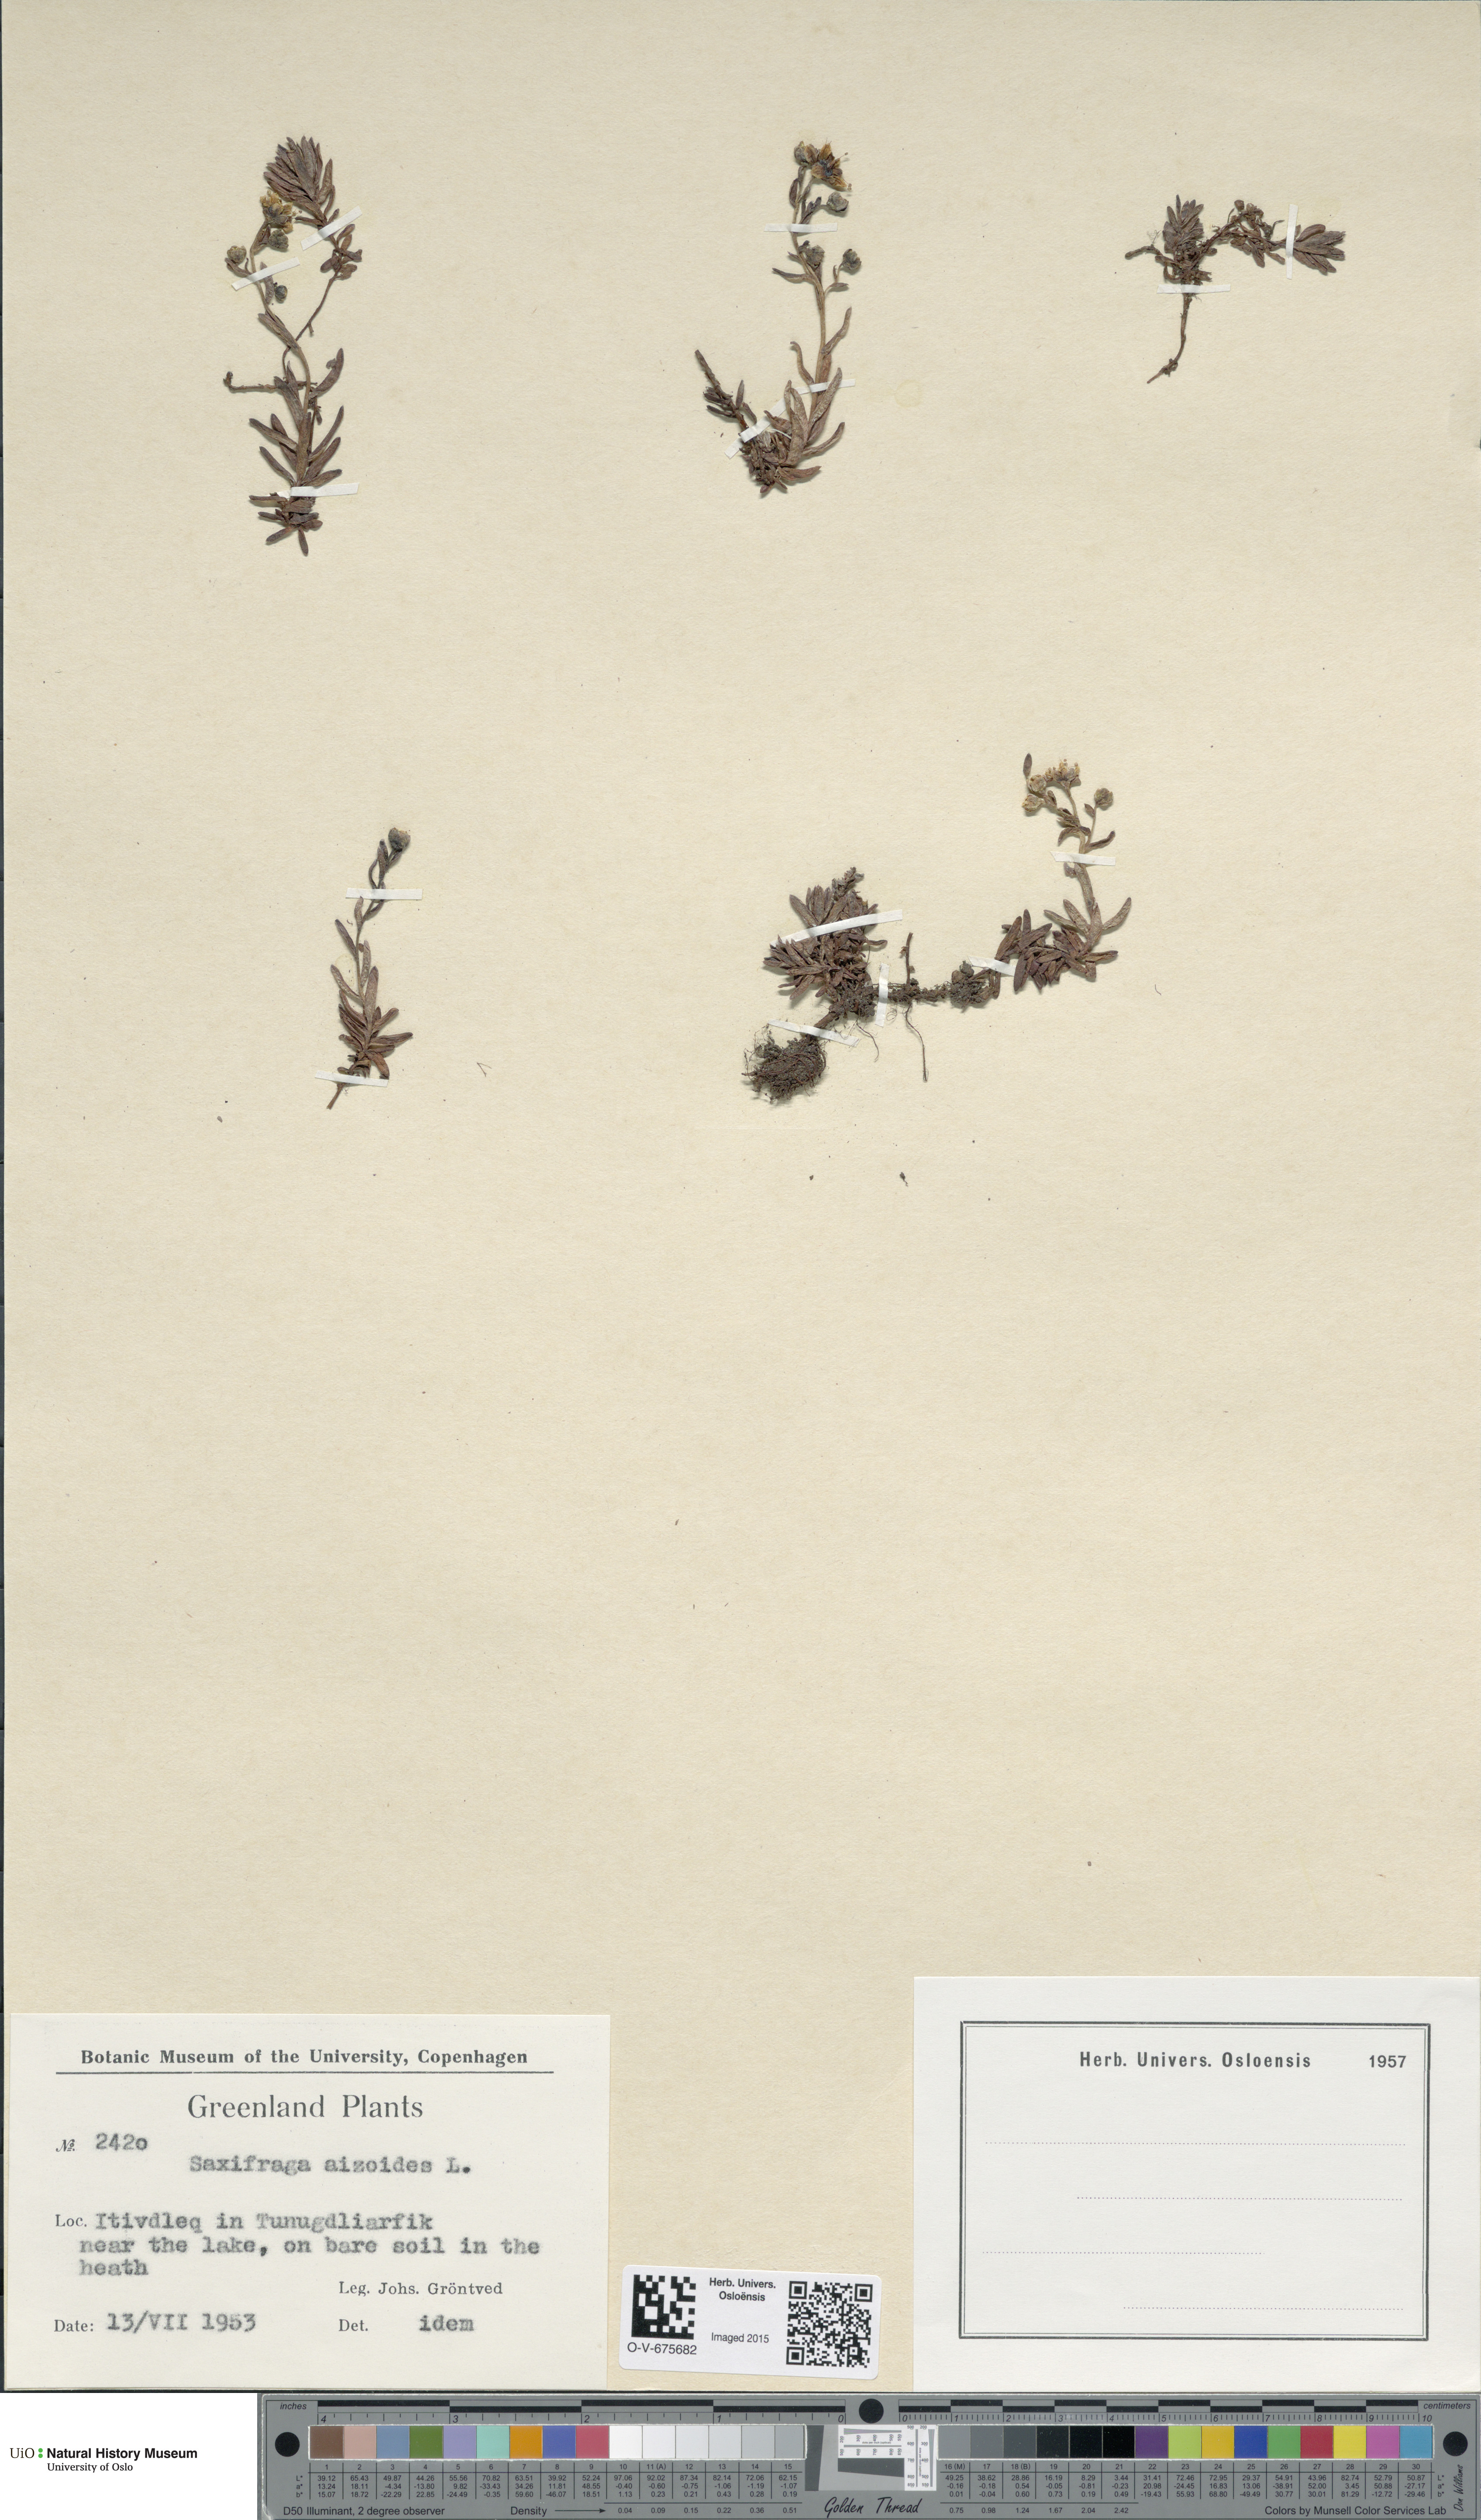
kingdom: Plantae
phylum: Tracheophyta
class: Magnoliopsida
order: Saxifragales
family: Saxifragaceae
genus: Saxifraga
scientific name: Saxifraga aizoides
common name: Yellow mountain saxifrage
